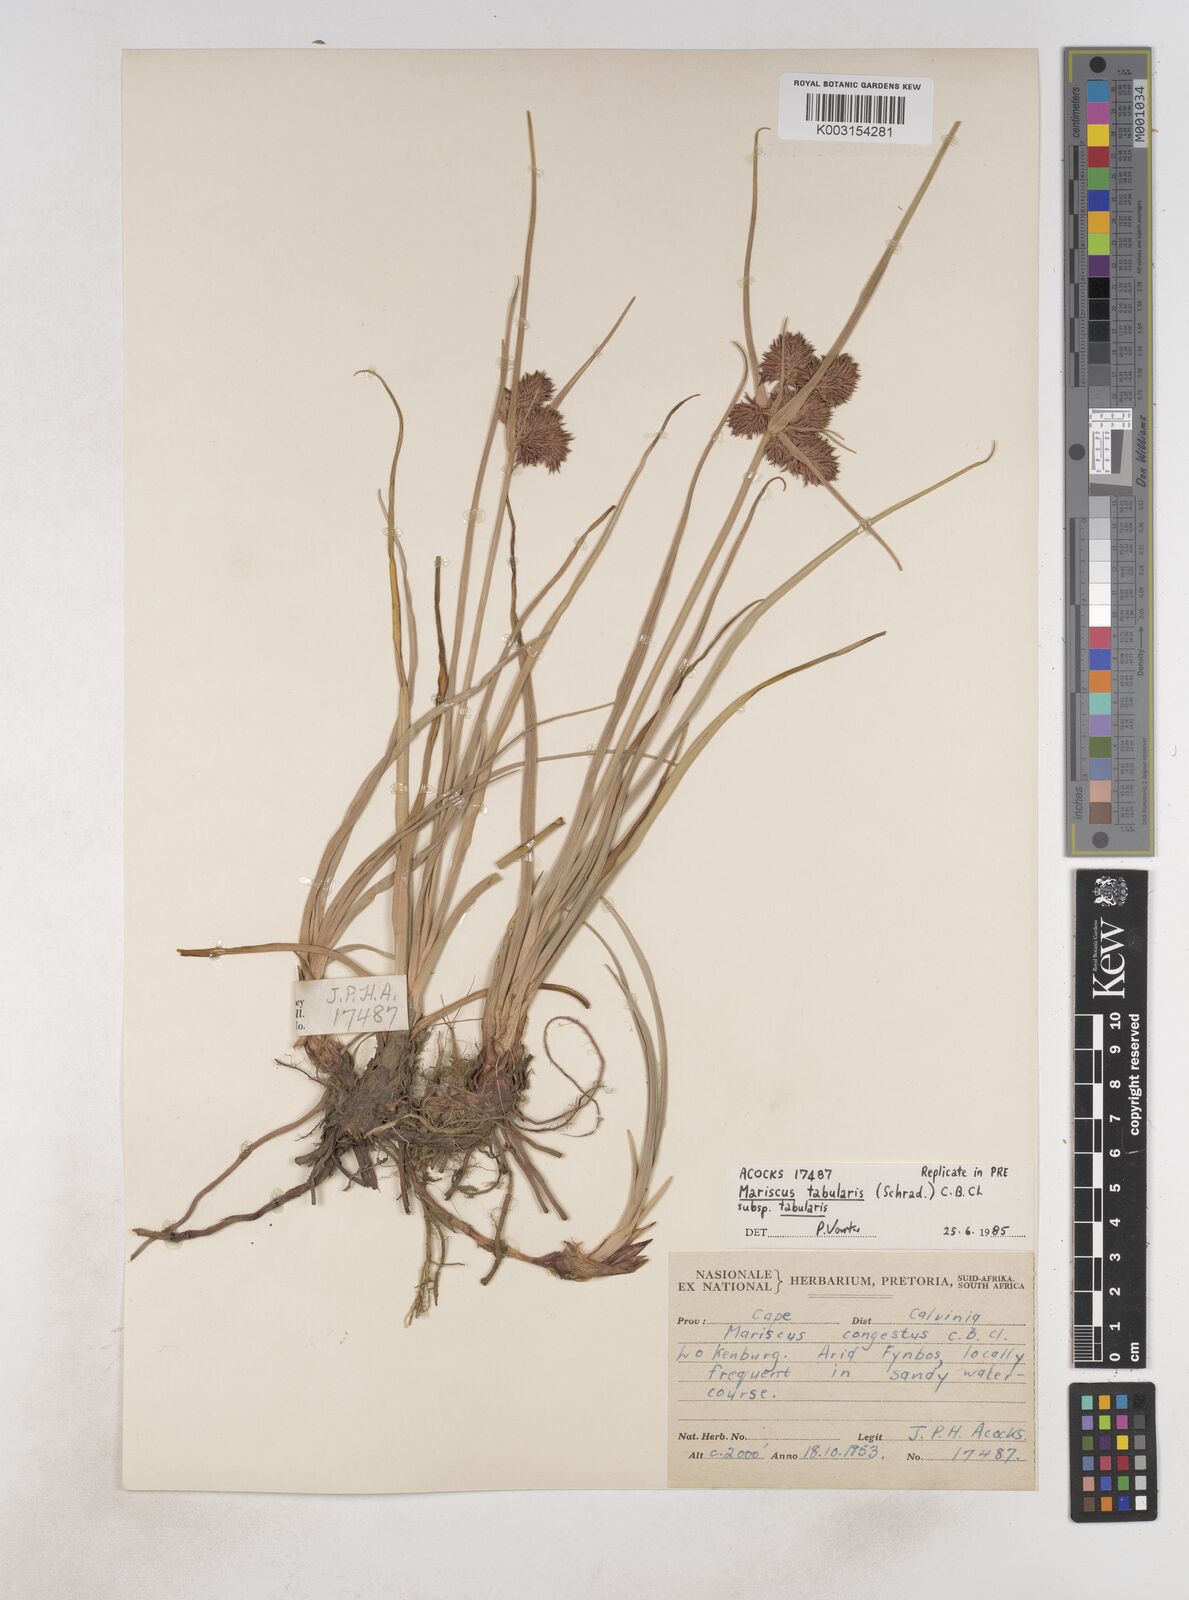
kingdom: Plantae
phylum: Tracheophyta
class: Liliopsida
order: Poales
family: Cyperaceae
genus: Cyperus
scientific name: Cyperus congestus
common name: Dense flat sedge
